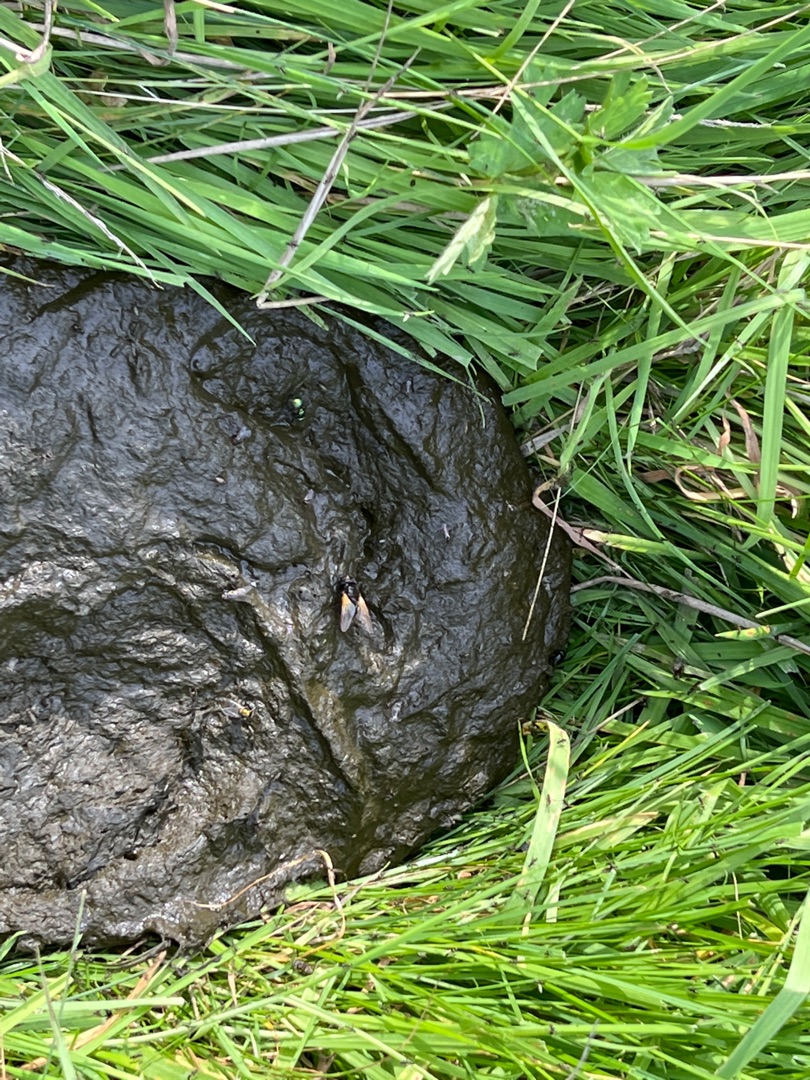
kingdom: Animalia
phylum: Arthropoda
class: Insecta
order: Diptera
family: Muscidae
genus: Mesembrina
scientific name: Mesembrina meridiana
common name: Gulvinget flue
